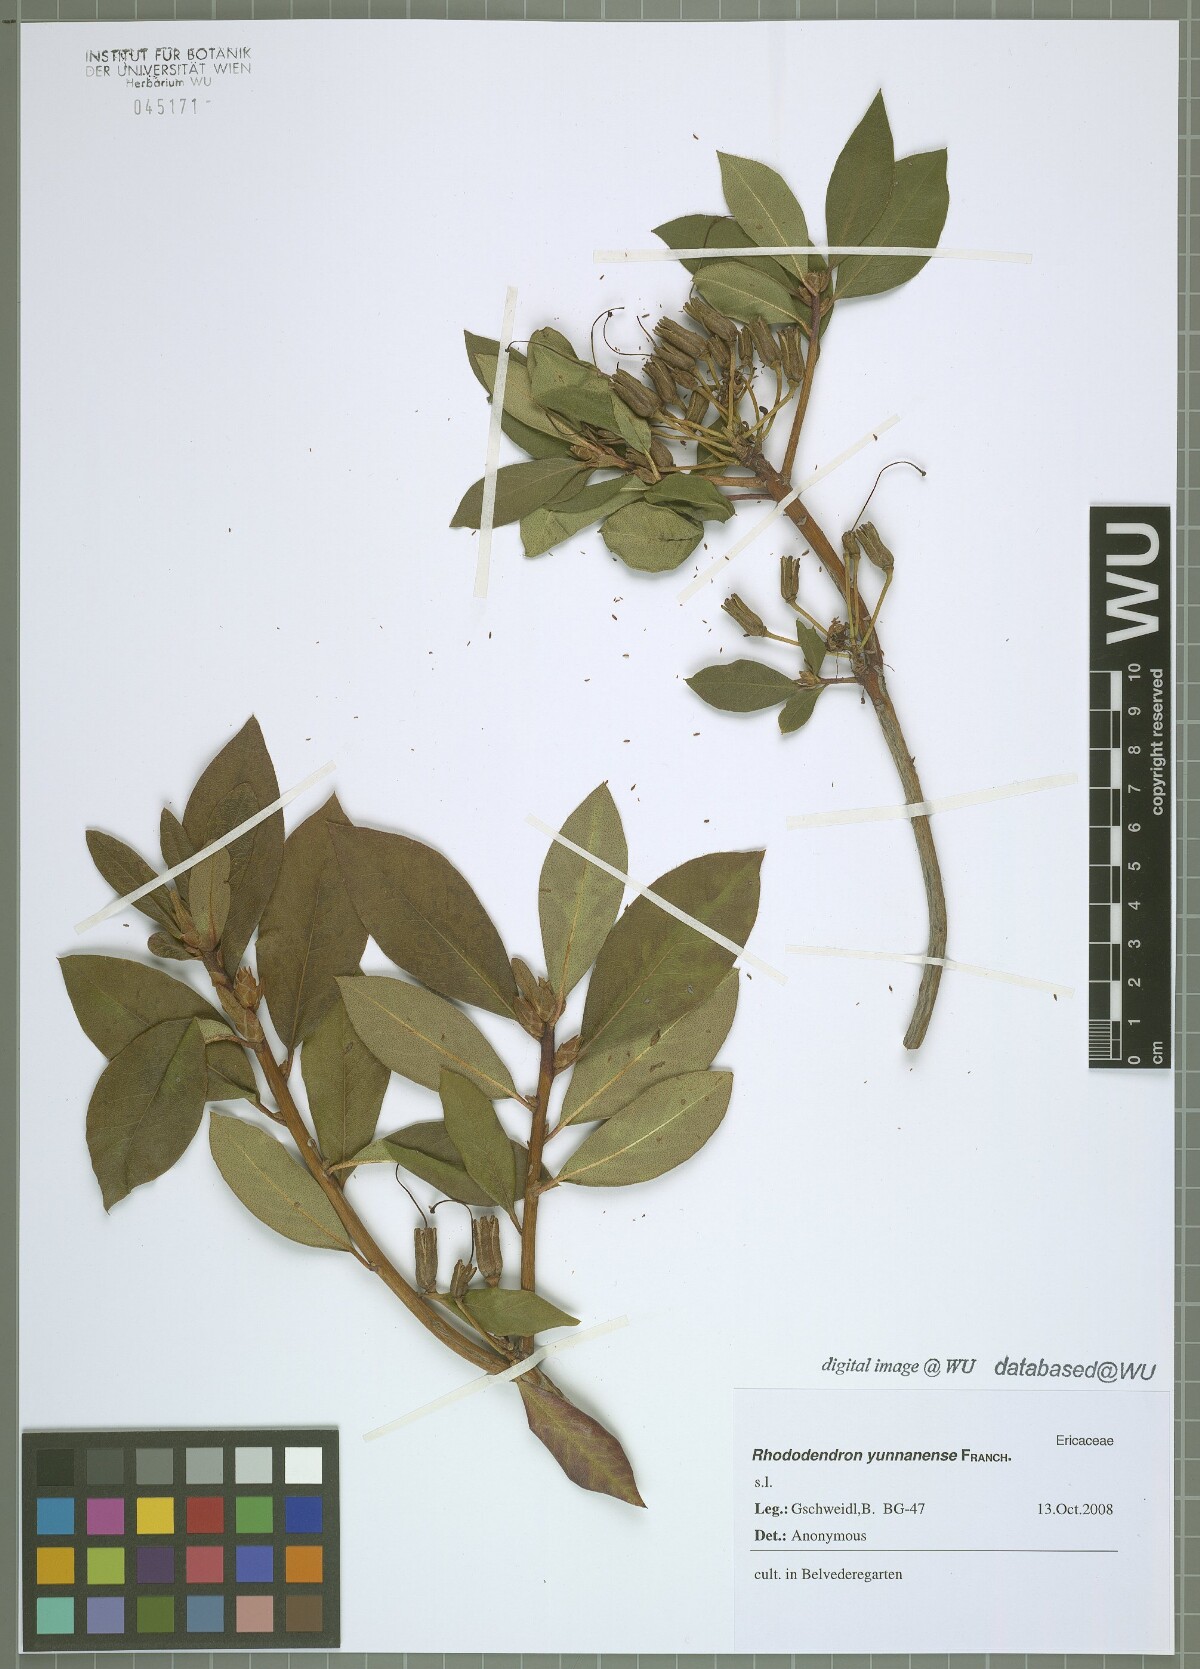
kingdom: Plantae
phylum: Tracheophyta
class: Magnoliopsida
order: Ericales
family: Ericaceae
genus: Rhododendron
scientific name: Rhododendron yunnanense
